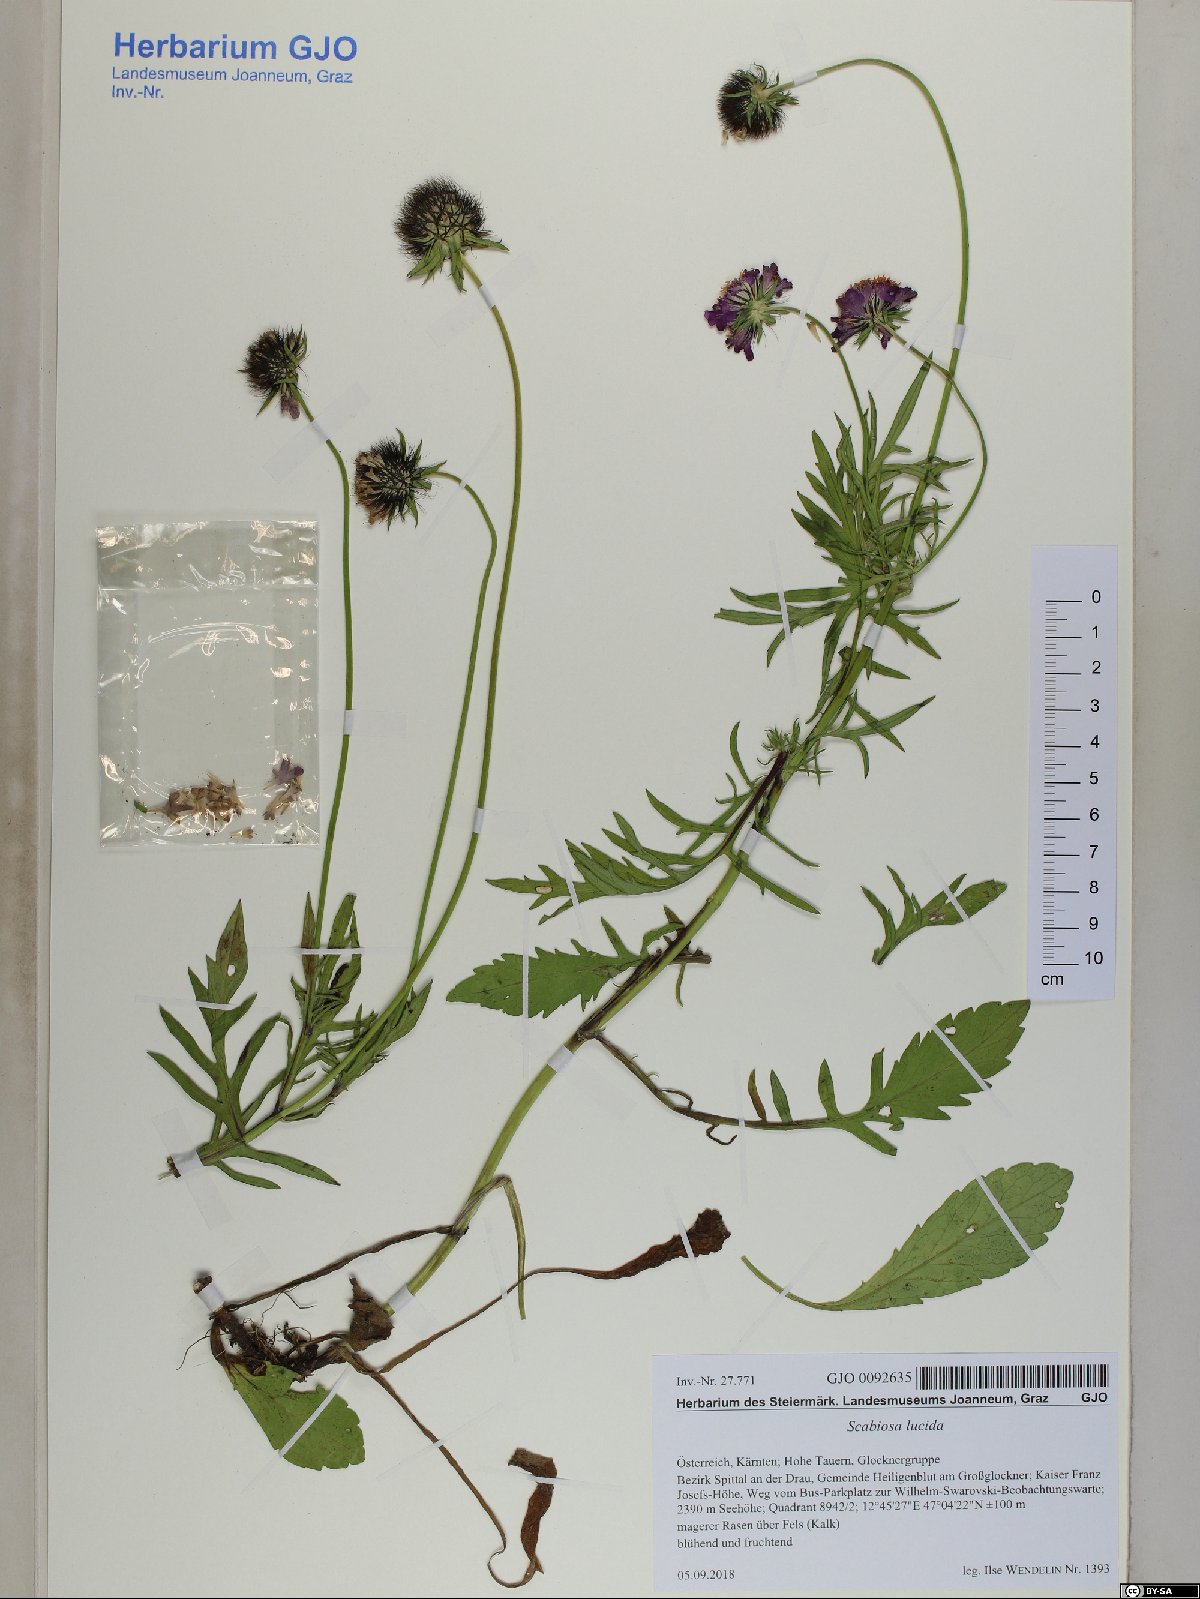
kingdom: Plantae
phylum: Tracheophyta
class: Magnoliopsida
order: Dipsacales
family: Caprifoliaceae
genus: Scabiosa
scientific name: Scabiosa lucida
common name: Shining scabious
